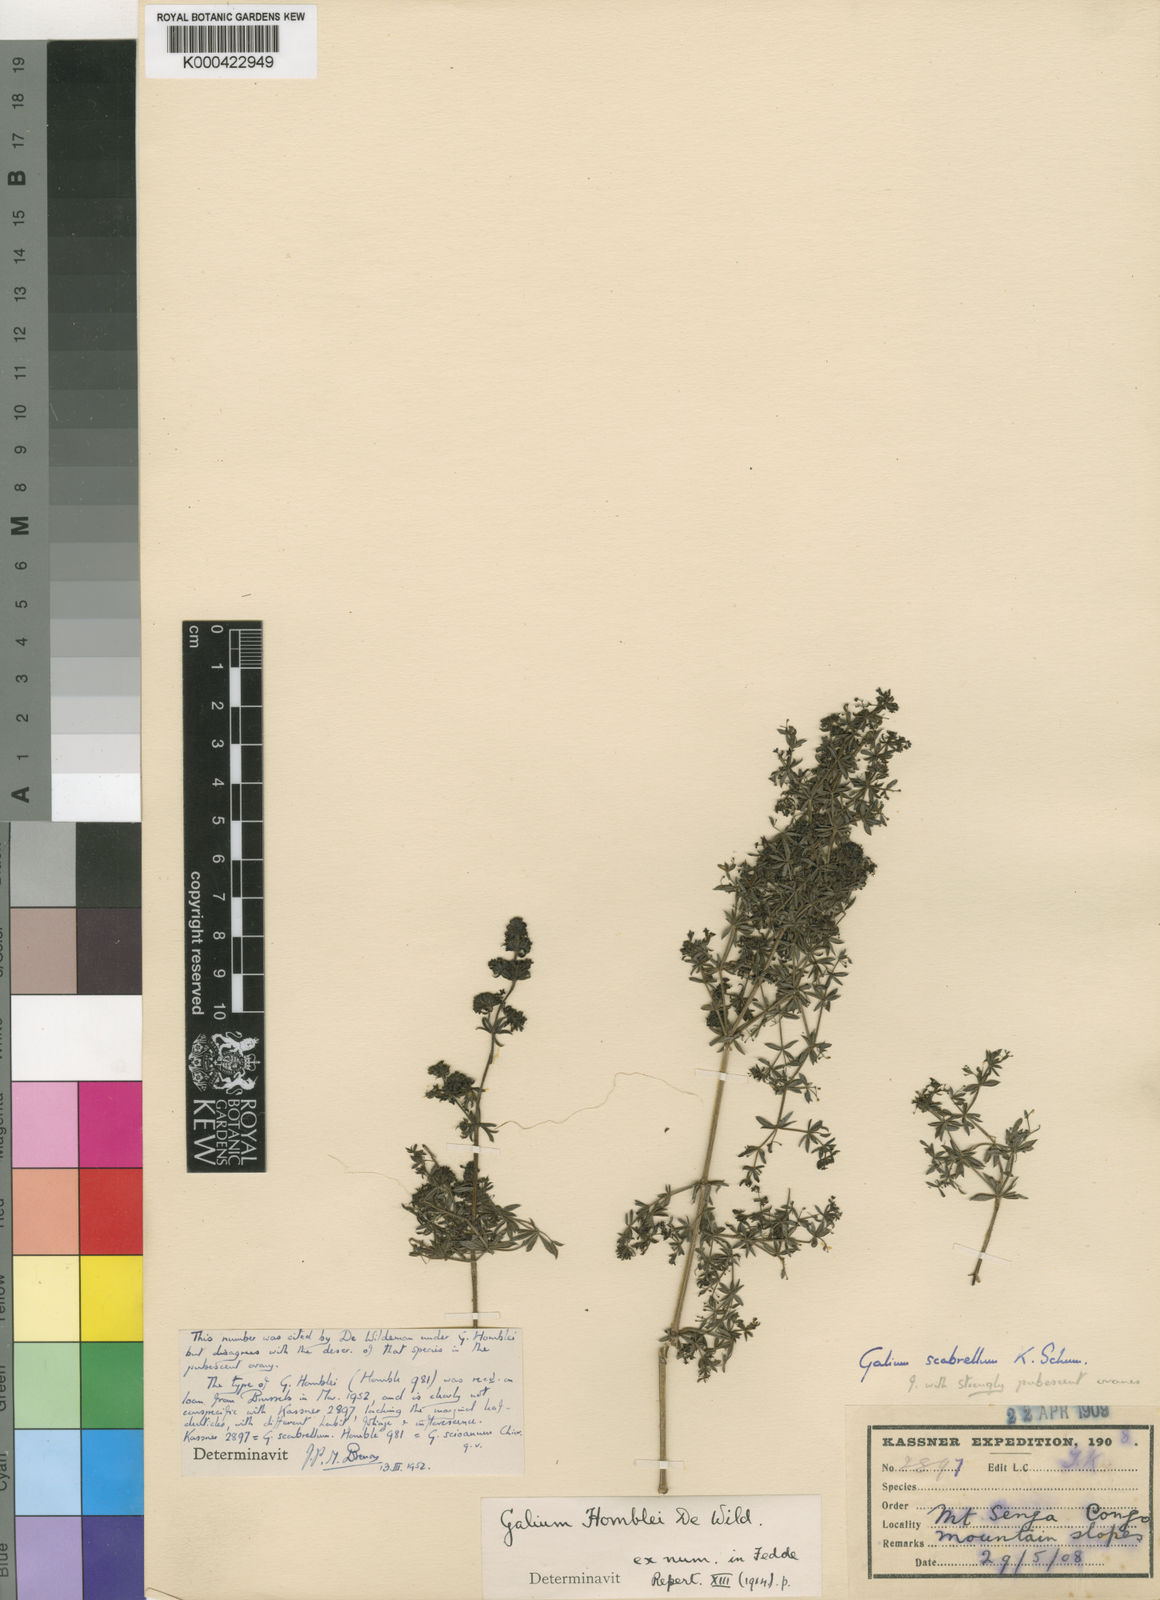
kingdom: Plantae
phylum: Tracheophyta
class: Magnoliopsida
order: Gentianales
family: Rubiaceae
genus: Galium
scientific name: Galium scioanum
